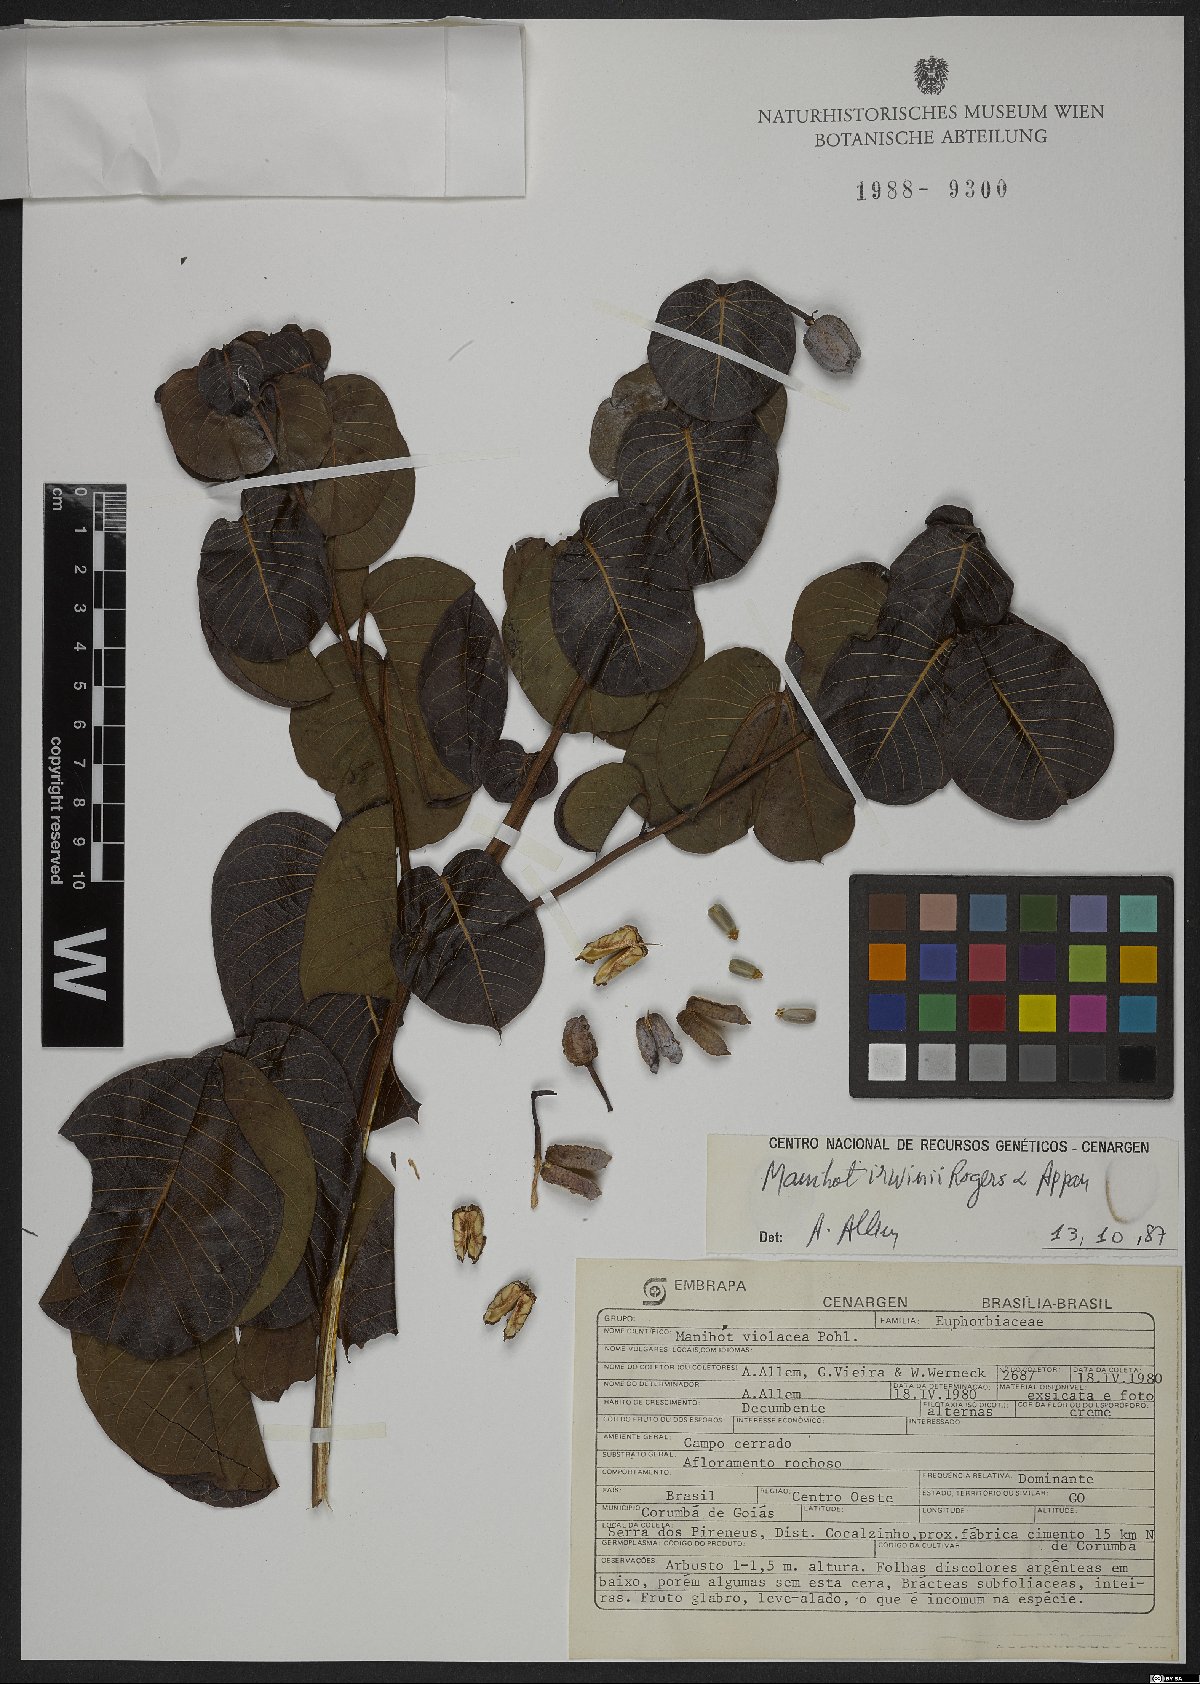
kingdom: Plantae
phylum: Tracheophyta
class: Magnoliopsida
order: Malpighiales
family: Euphorbiaceae
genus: Manihot
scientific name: Manihot irwinii
